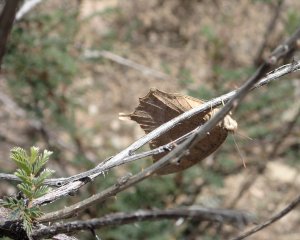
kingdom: Animalia
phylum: Arthropoda
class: Insecta
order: Lepidoptera
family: Nymphalidae
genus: Anaea
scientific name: Anaea aidea
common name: Tropical Leafwing
